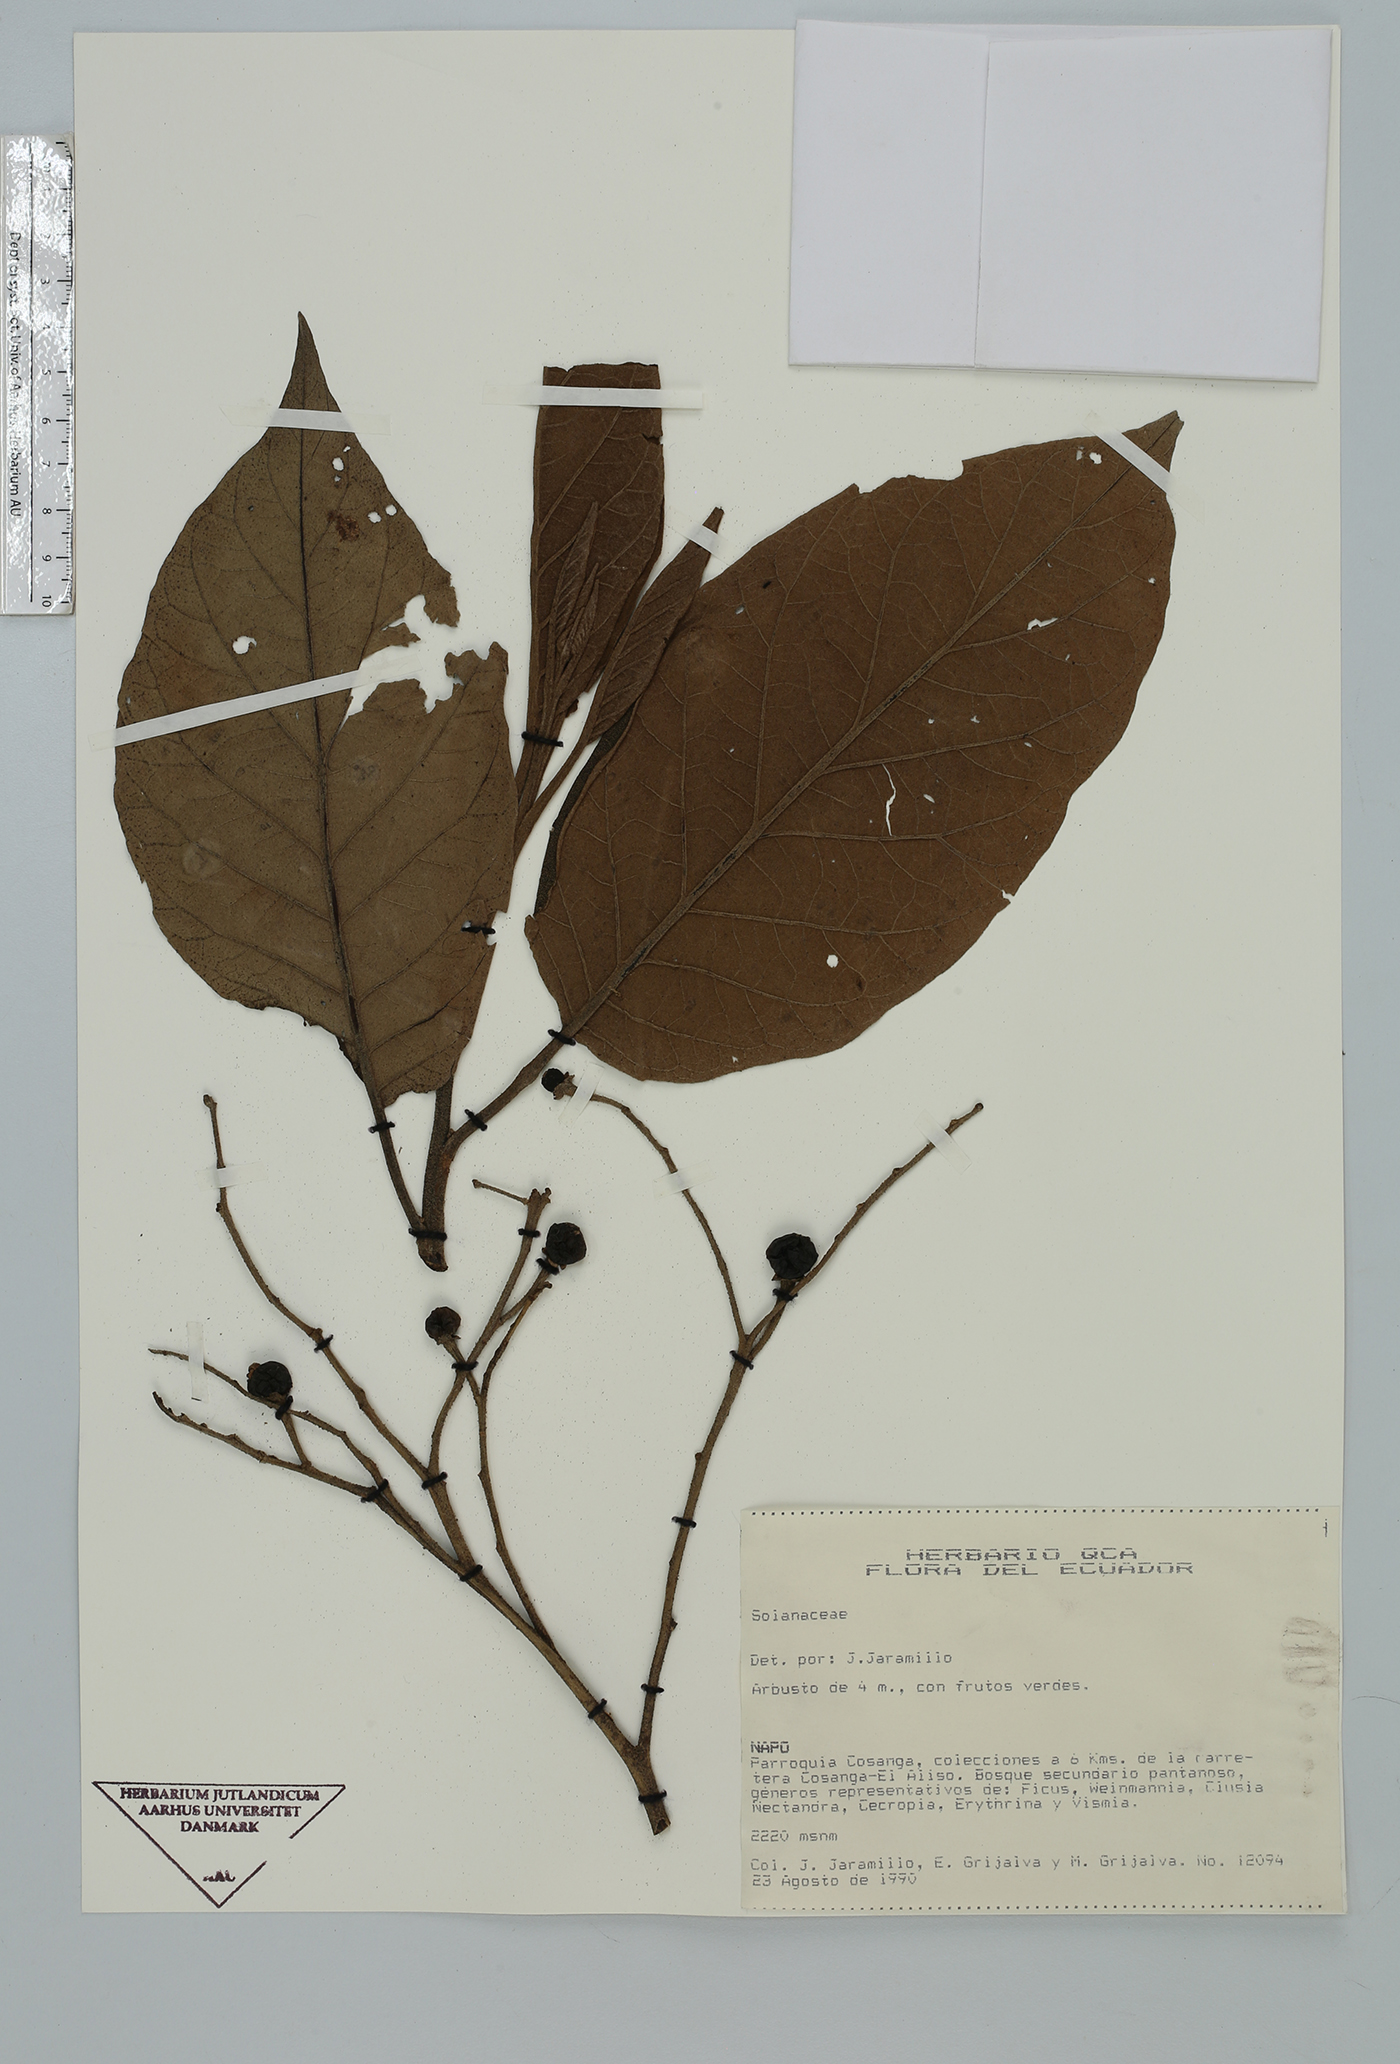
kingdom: Plantae
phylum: Tracheophyta
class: Magnoliopsida
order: Solanales
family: Solanaceae
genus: Solanum
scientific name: Solanum
